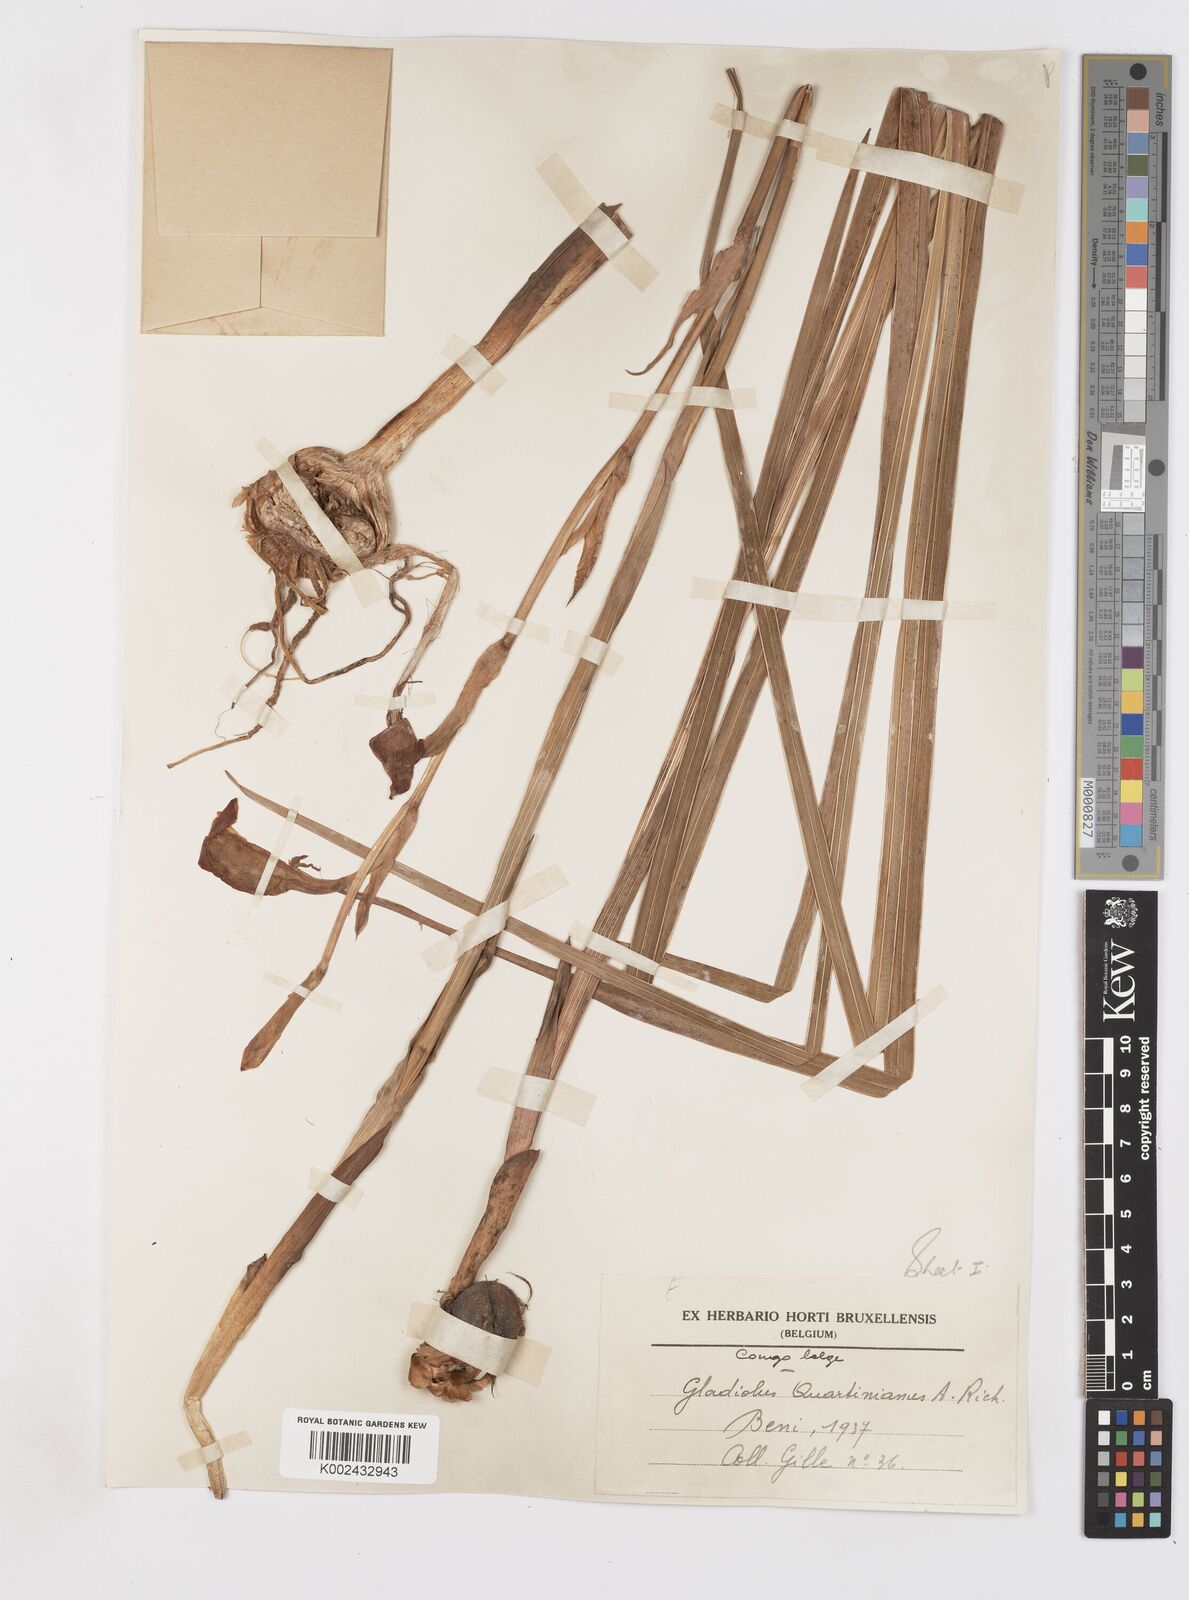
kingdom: Plantae
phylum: Tracheophyta
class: Liliopsida
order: Asparagales
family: Iridaceae
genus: Gladiolus
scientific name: Gladiolus dalenii
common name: Cornflag
